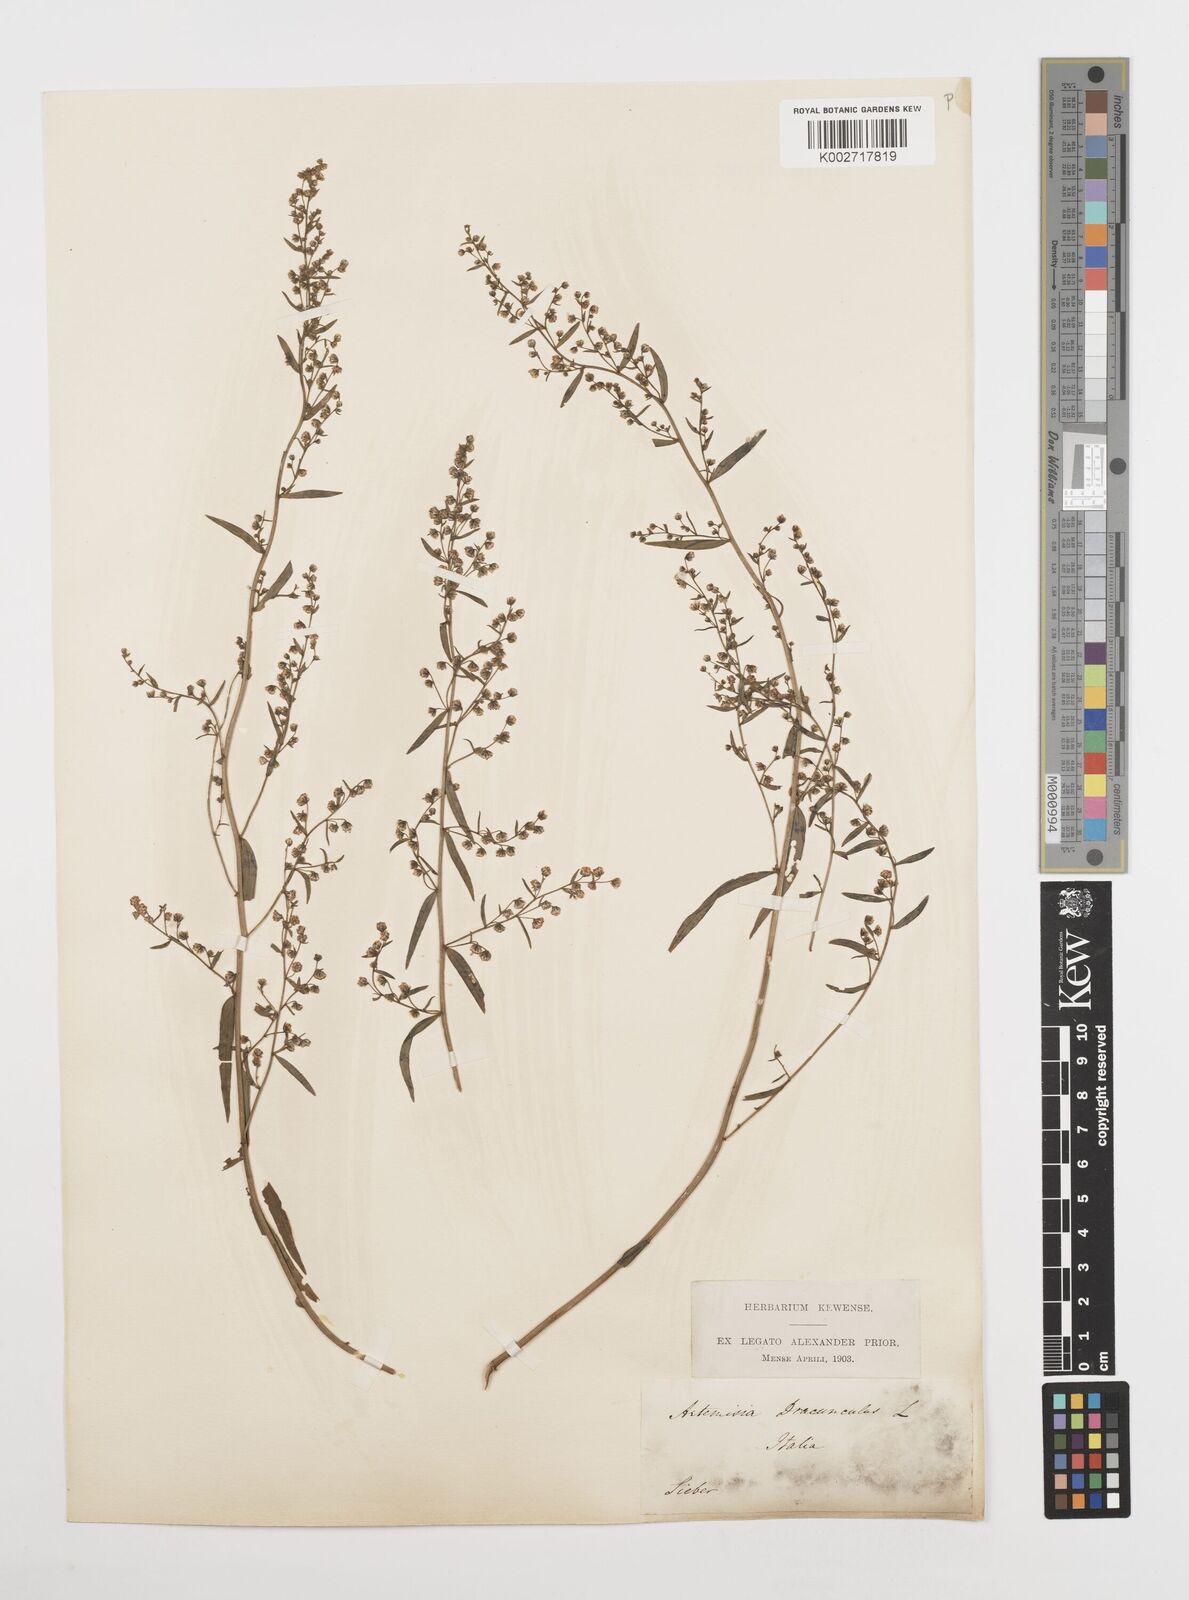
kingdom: Plantae
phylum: Tracheophyta
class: Magnoliopsida
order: Asterales
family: Asteraceae
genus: Artemisia
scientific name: Artemisia dracunculus
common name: Tarragon
